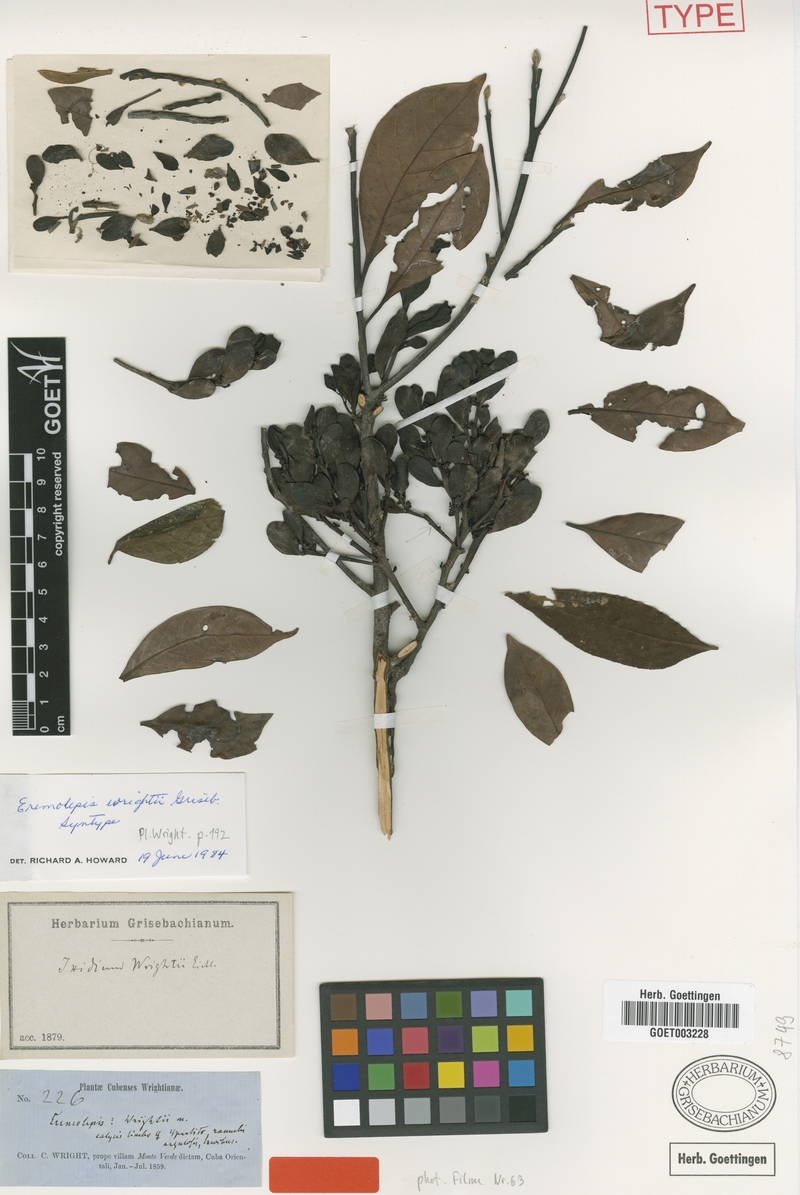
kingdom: Plantae
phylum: Tracheophyta
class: Magnoliopsida
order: Santalales
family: Santalaceae
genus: Antidaphne
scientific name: Antidaphne wrightii
